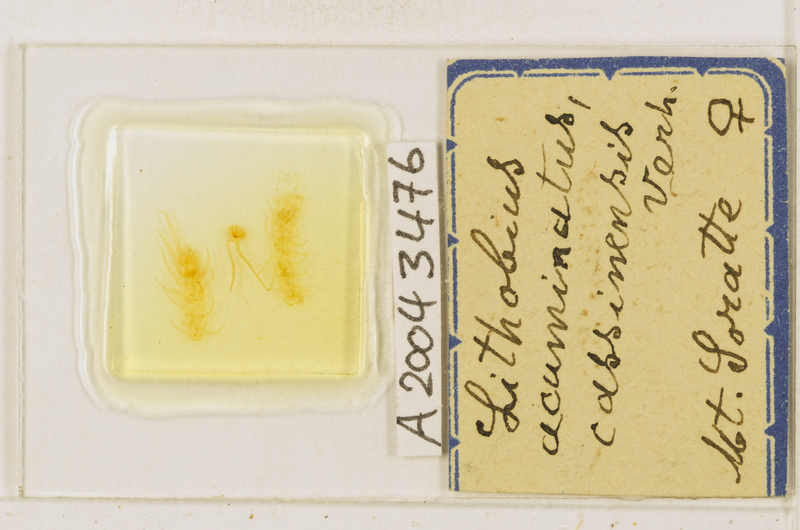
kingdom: Animalia
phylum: Arthropoda
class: Chilopoda
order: Lithobiomorpha
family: Lithobiidae
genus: Lithobius
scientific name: Lithobius acuminatus
